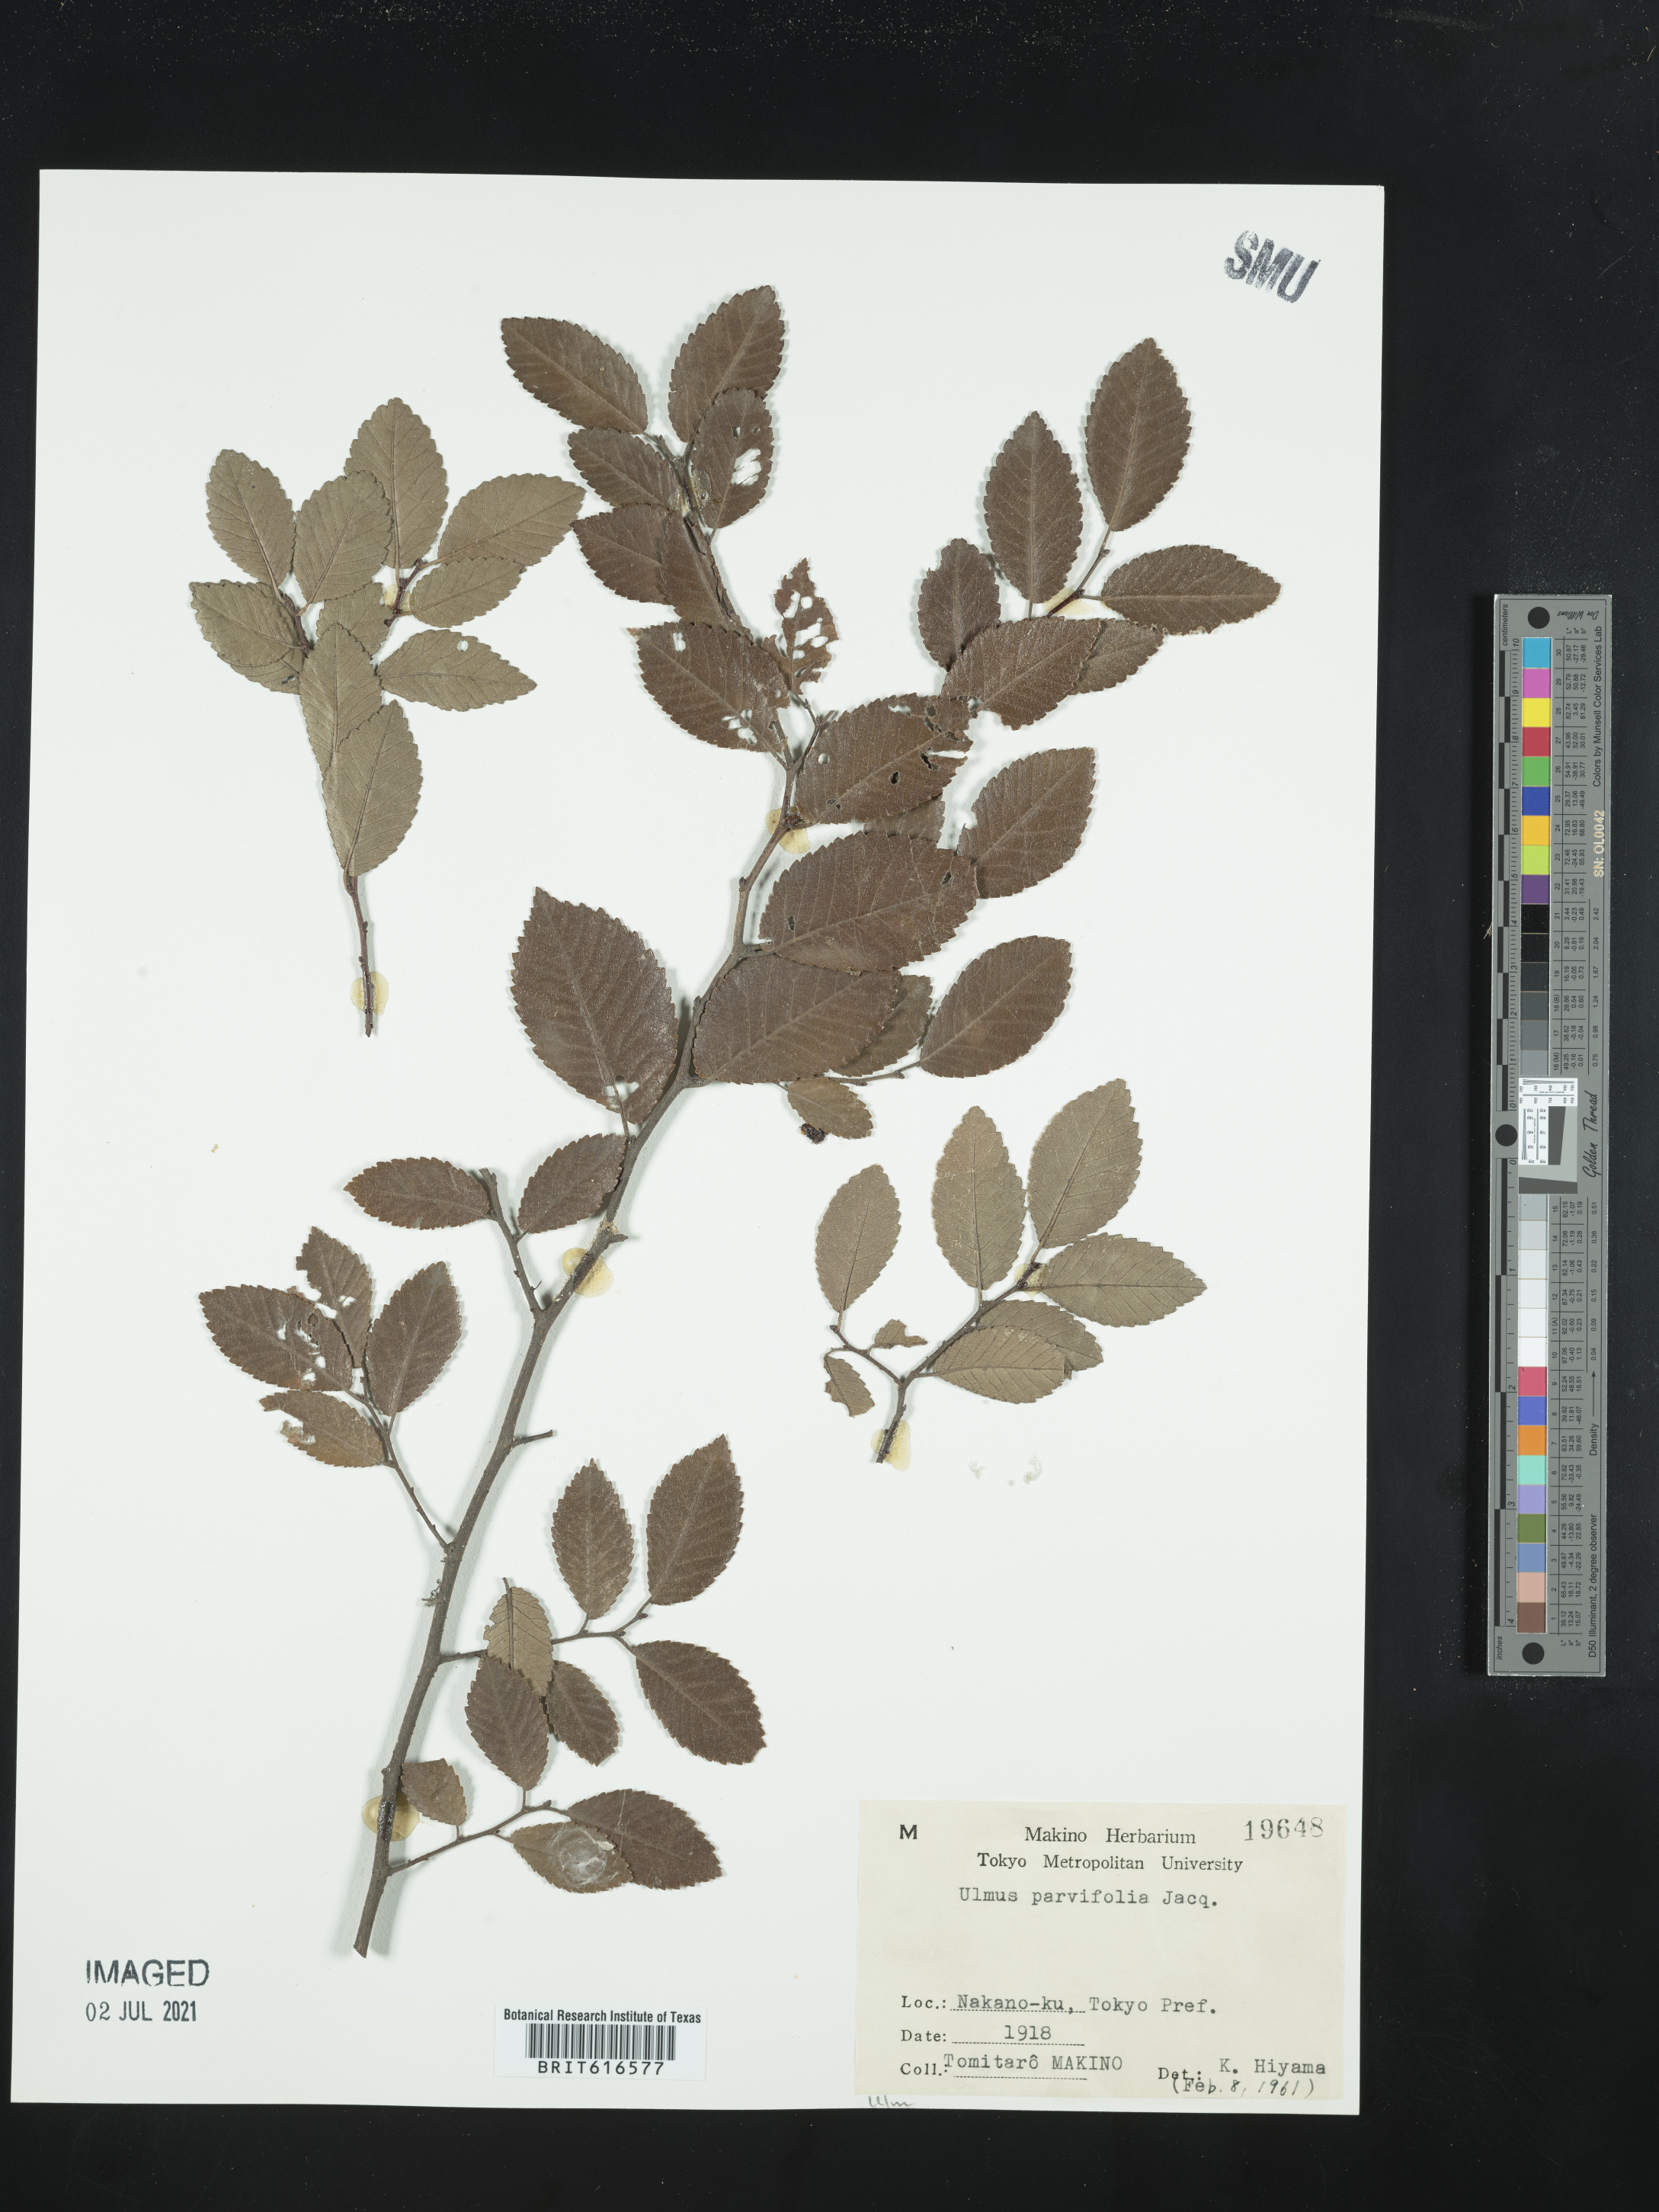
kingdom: Plantae
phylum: Tracheophyta
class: Magnoliopsida
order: Rosales
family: Ulmaceae
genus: Ulmus
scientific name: Ulmus parvifolia
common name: Chinese elm
